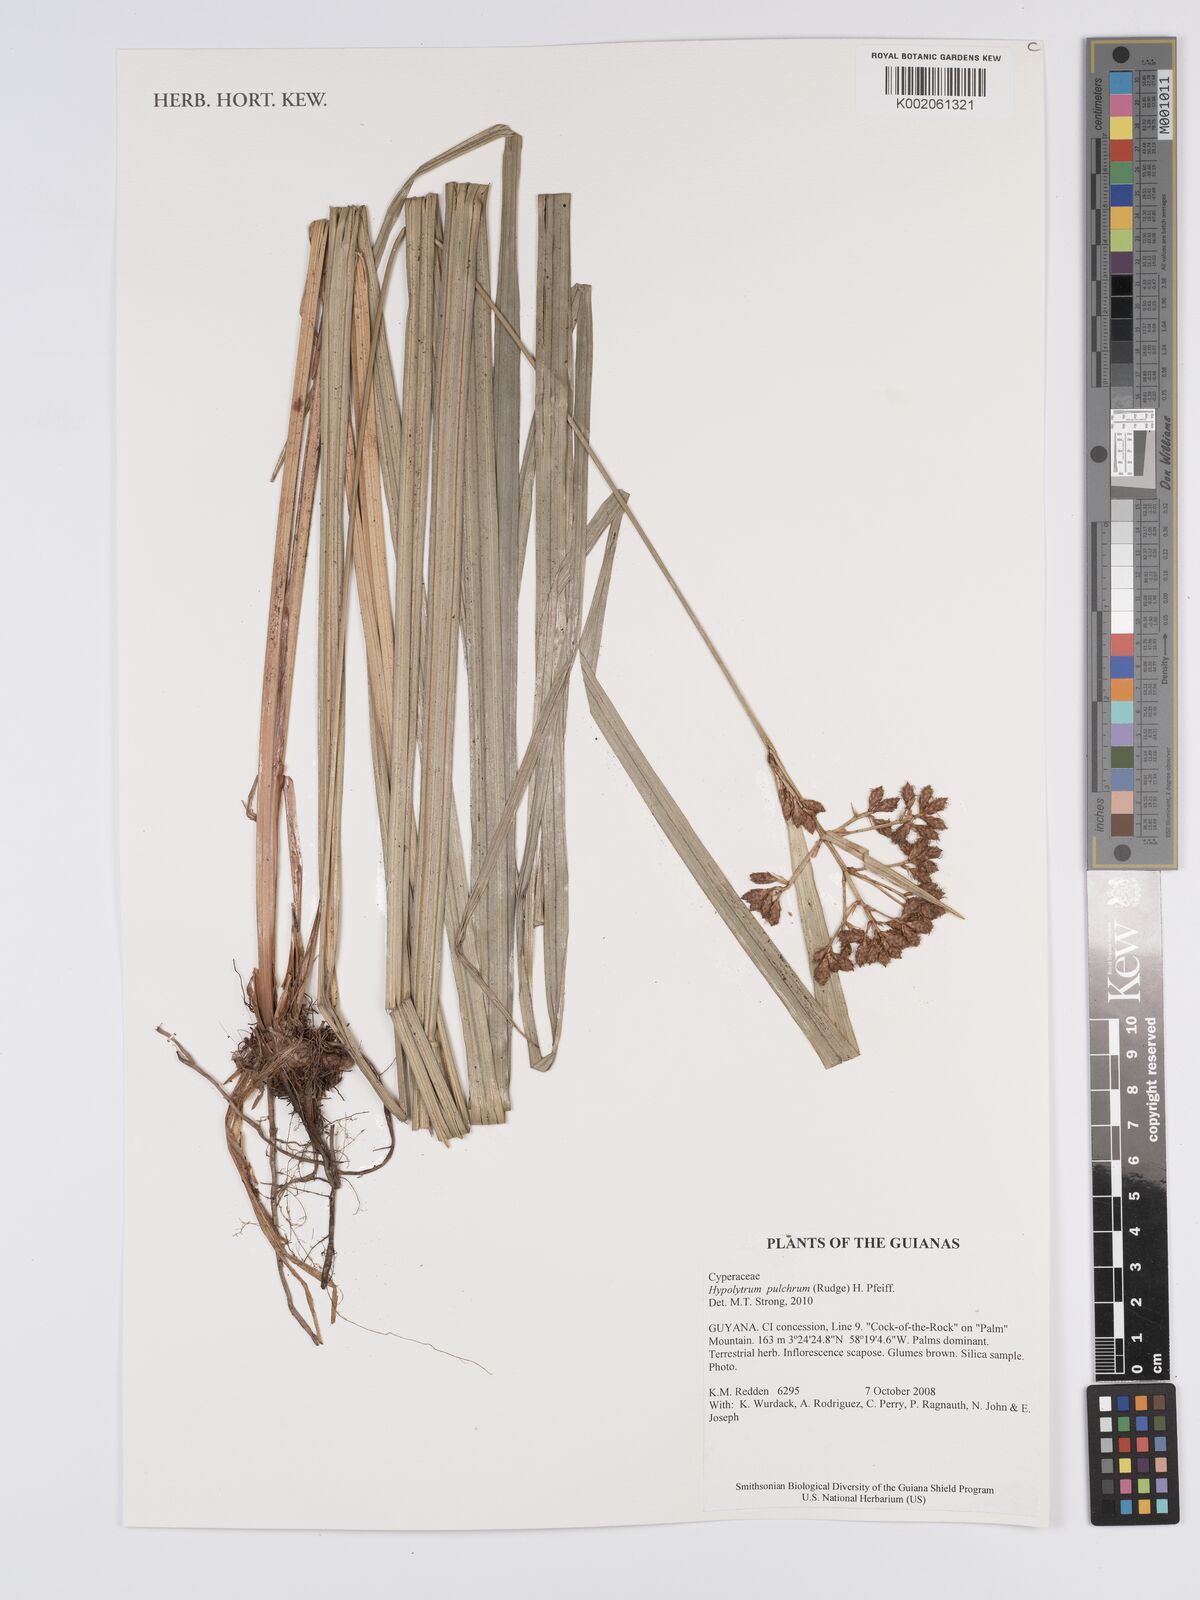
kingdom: Plantae
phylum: Tracheophyta
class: Liliopsida
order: Poales
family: Cyperaceae
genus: Hypolytrum
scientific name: Hypolytrum pulchrum
